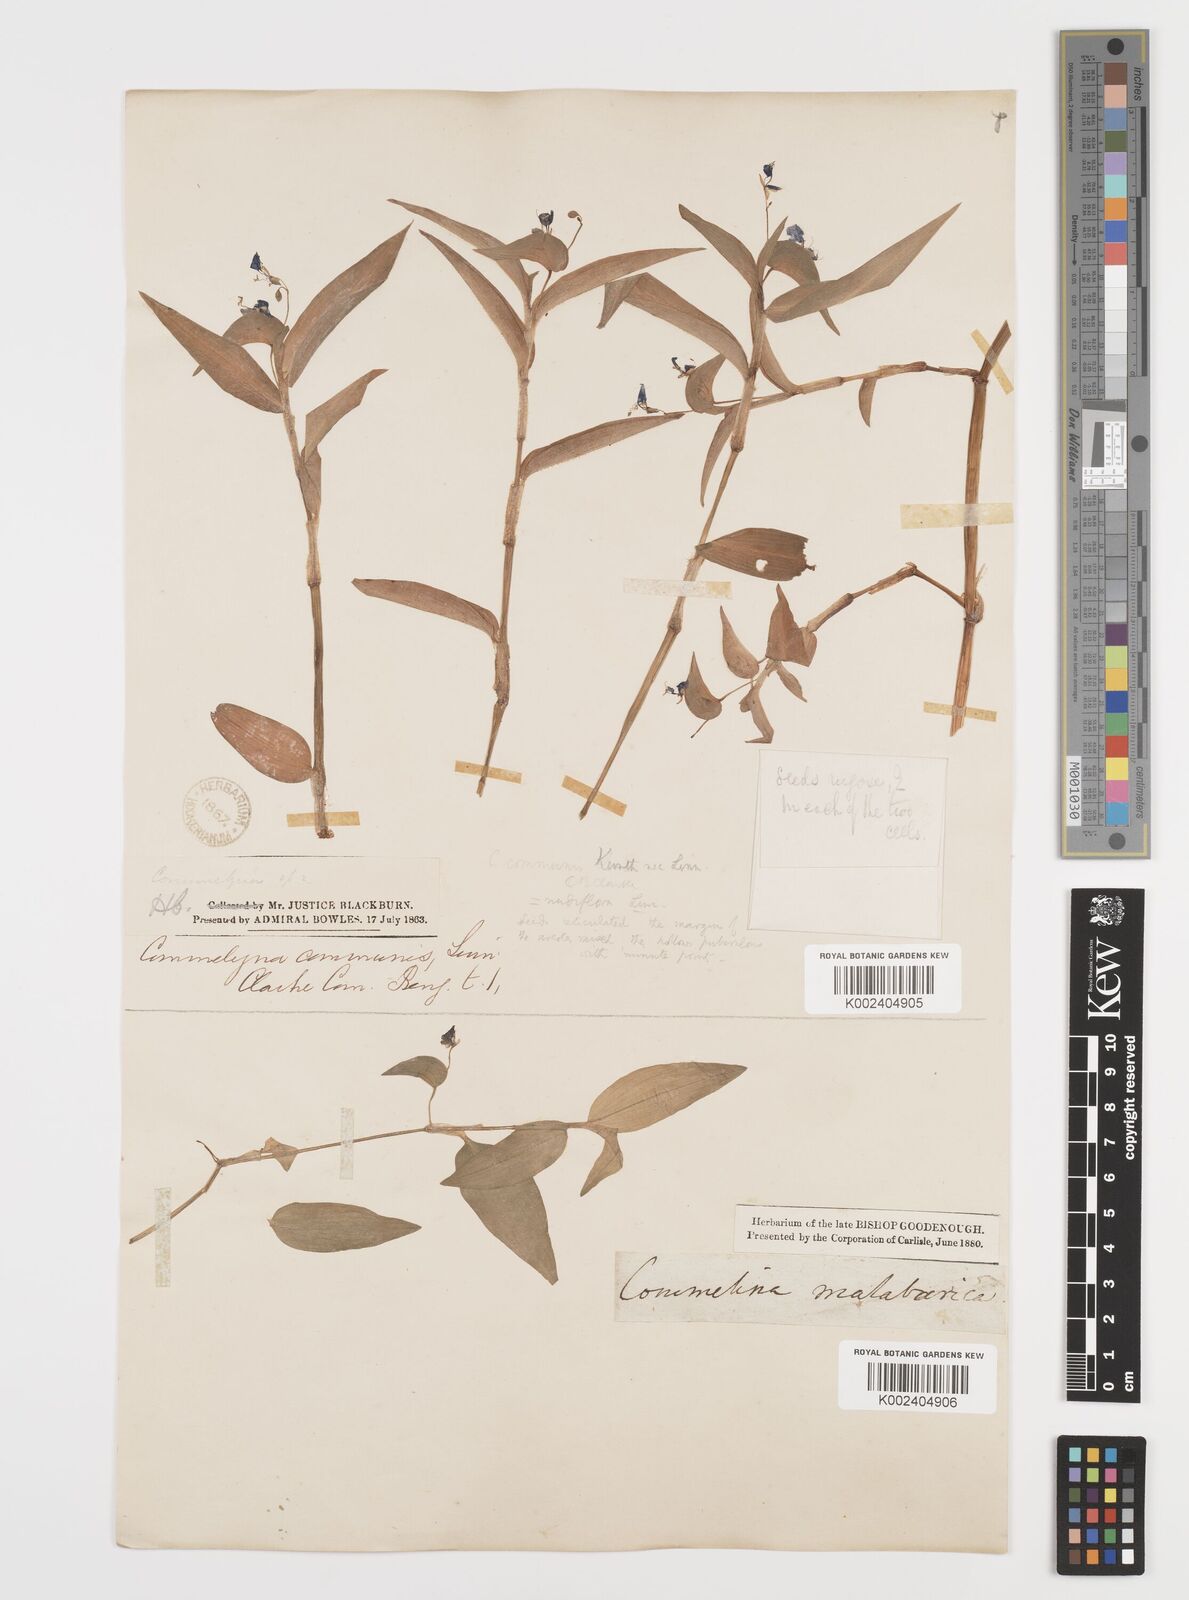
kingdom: Plantae
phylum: Tracheophyta
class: Liliopsida
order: Commelinales
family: Commelinaceae
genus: Commelina
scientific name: Commelina diffusa
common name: Climbing dayflower
